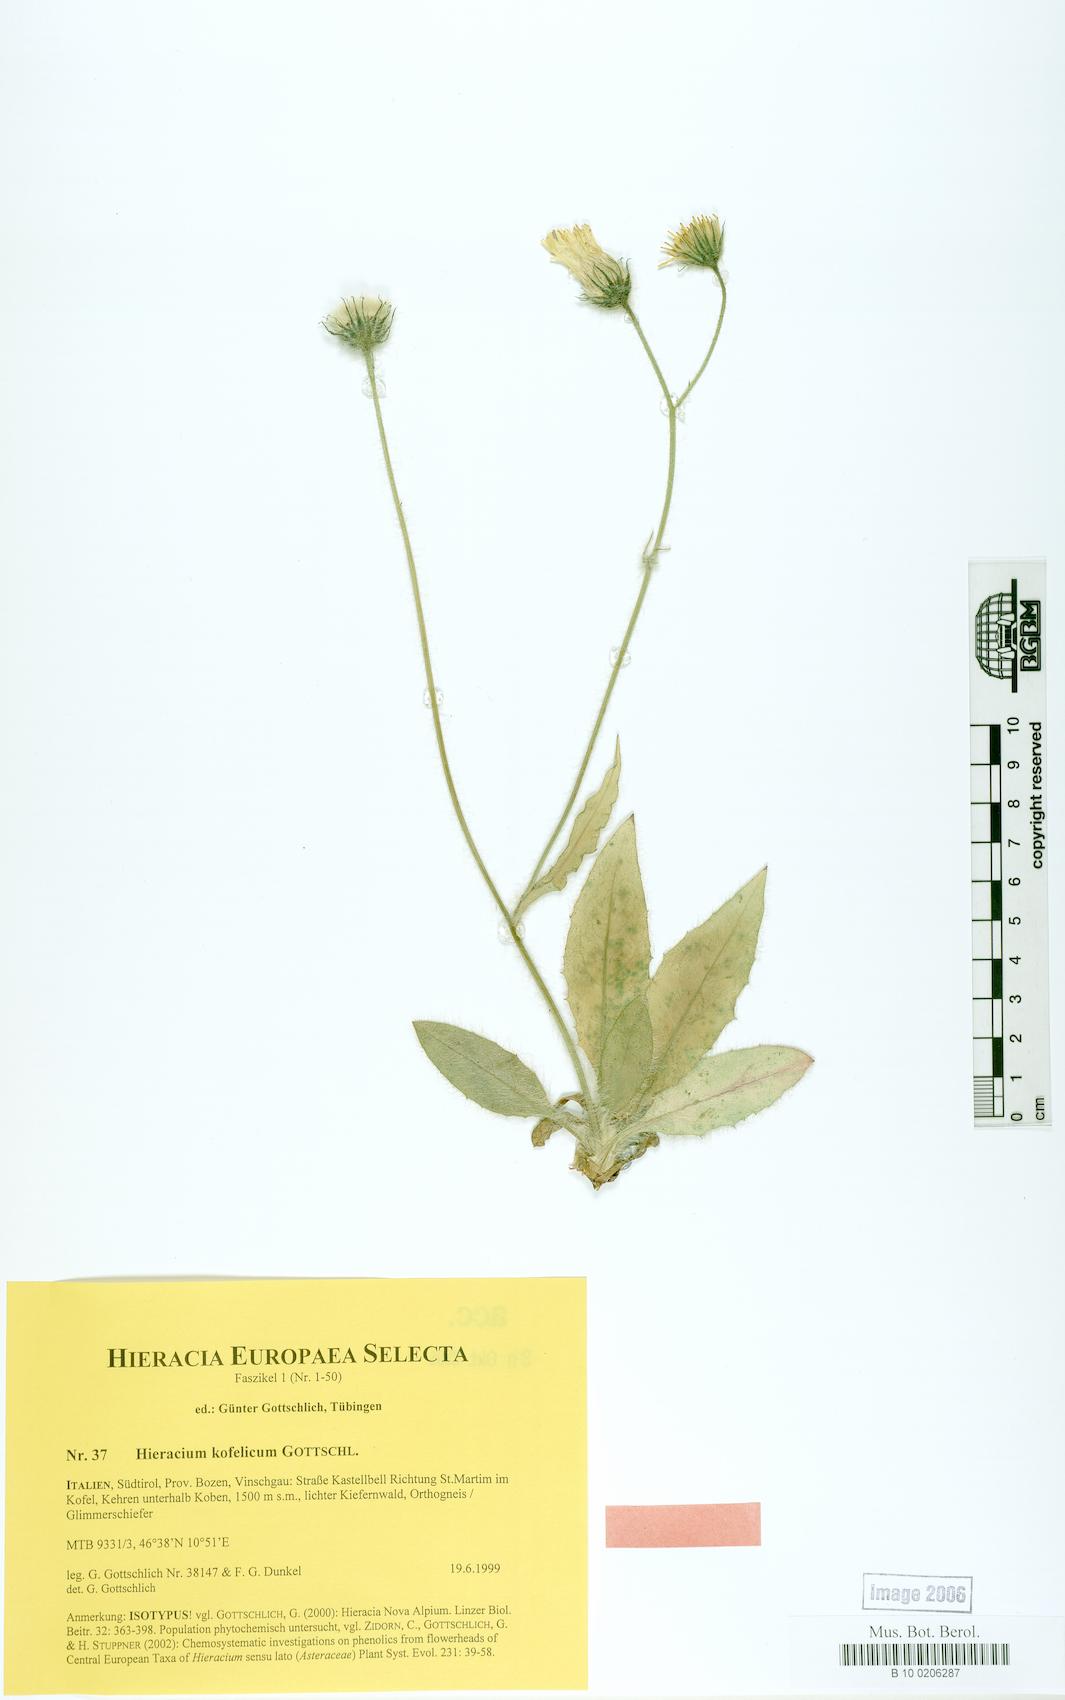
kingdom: Plantae
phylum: Tracheophyta
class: Magnoliopsida
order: Asterales
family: Asteraceae
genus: Hieracium
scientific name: Hieracium kofelicum
